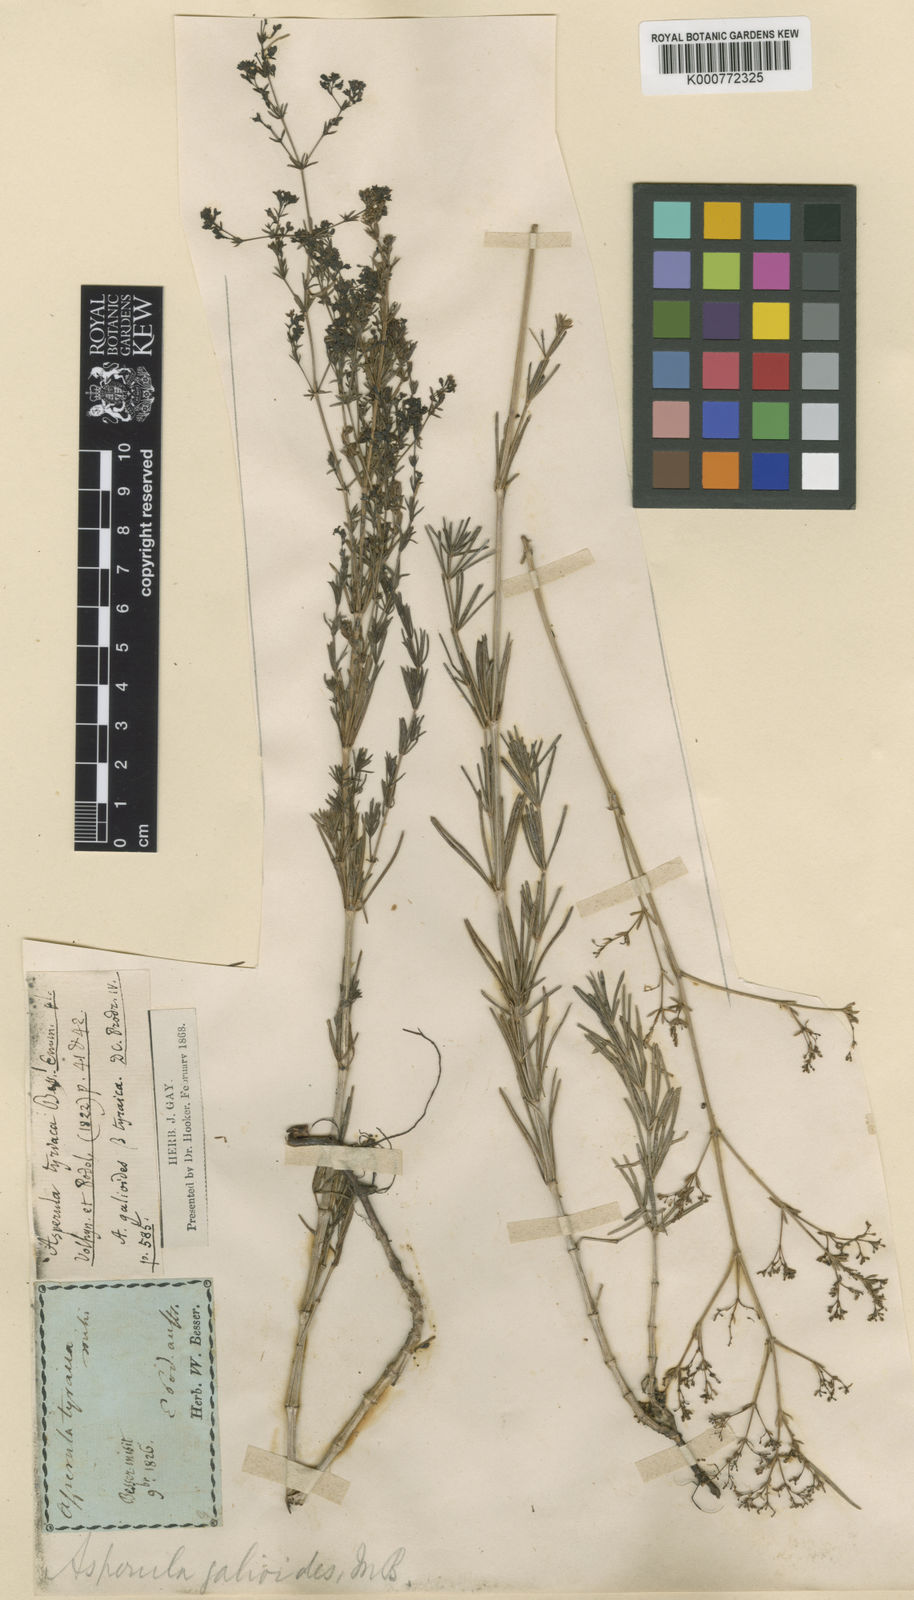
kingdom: Plantae
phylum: Tracheophyta
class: Magnoliopsida
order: Gentianales
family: Rubiaceae
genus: Galium
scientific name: Galium volhynicum
